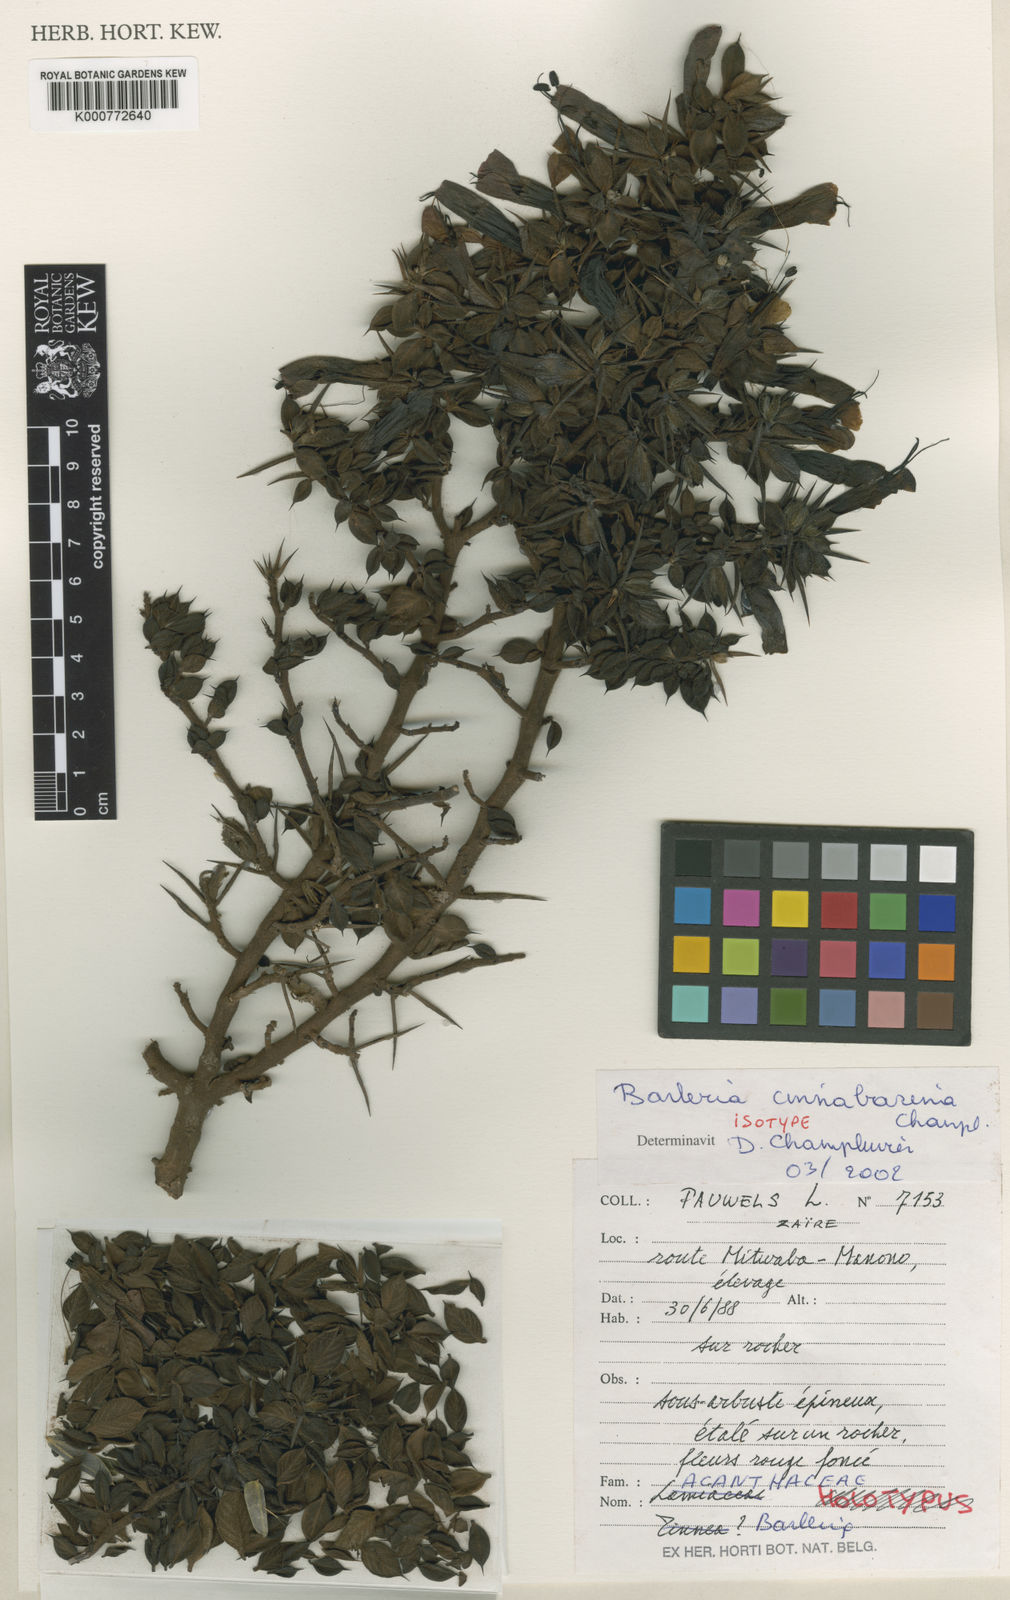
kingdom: Plantae
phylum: Tracheophyta
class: Magnoliopsida
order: Lamiales
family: Acanthaceae
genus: Barleria
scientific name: Barleria cinnabarina
